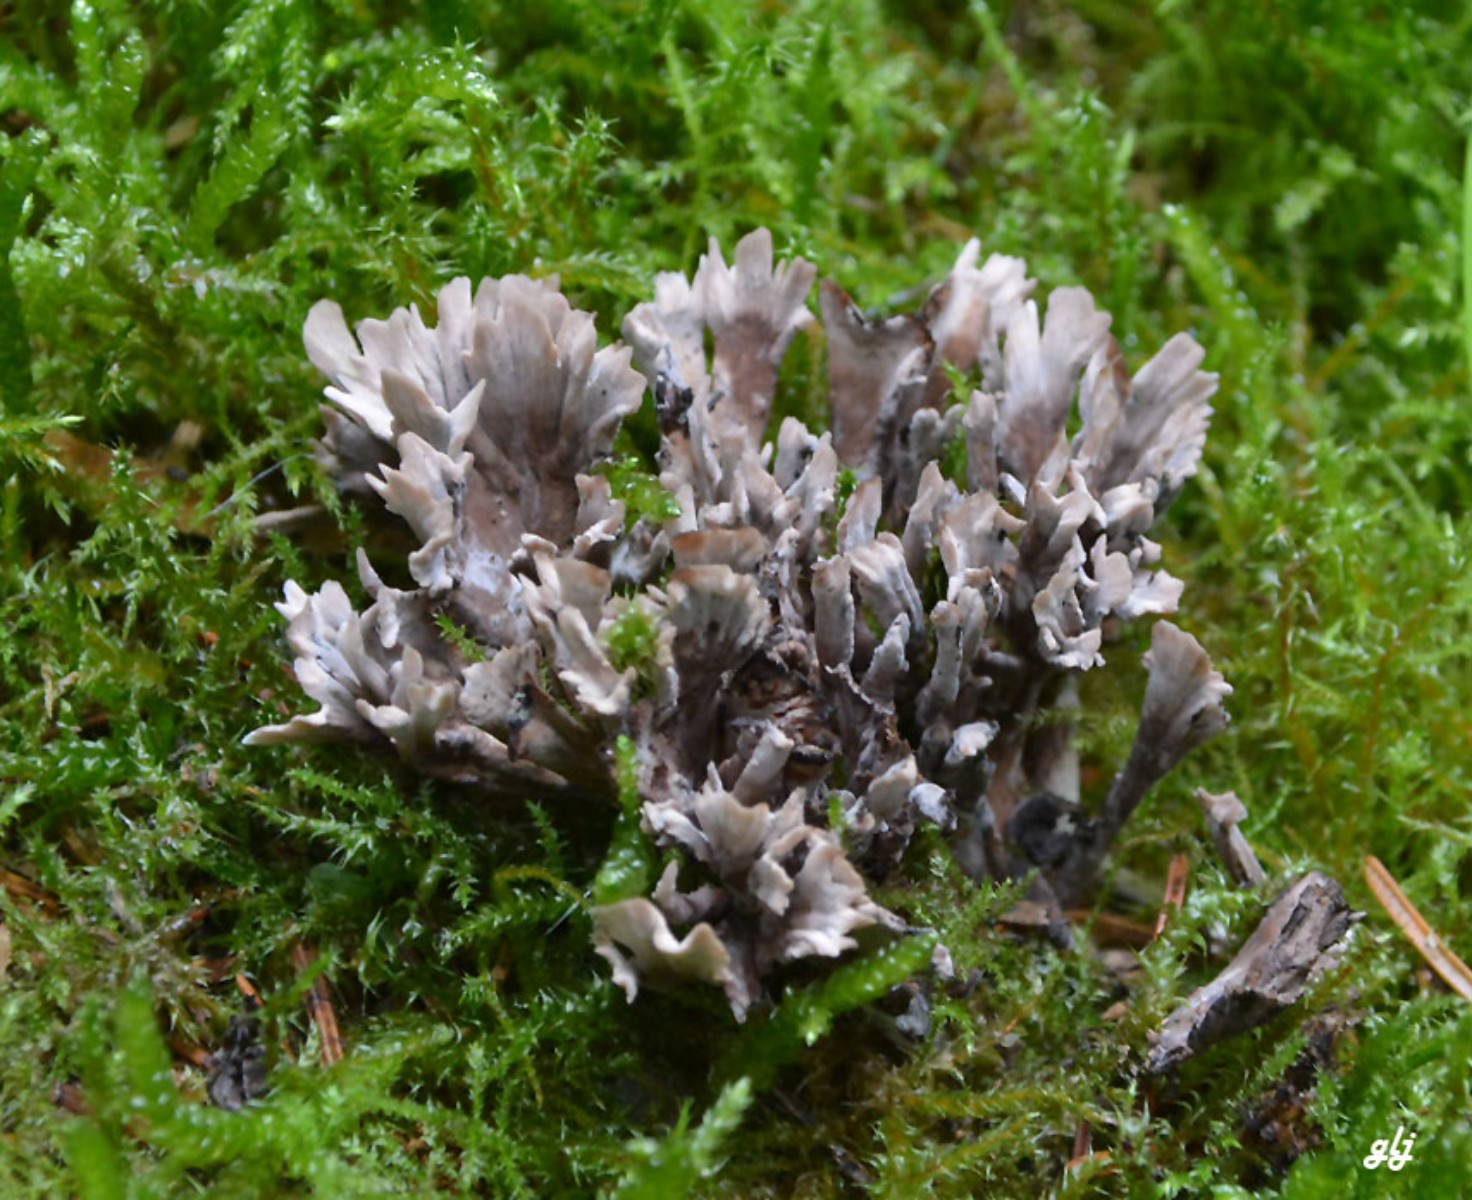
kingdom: Fungi
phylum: Basidiomycota
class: Agaricomycetes
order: Thelephorales
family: Thelephoraceae
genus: Thelephora
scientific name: Thelephora palmata
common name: grenet frynsesvamp
